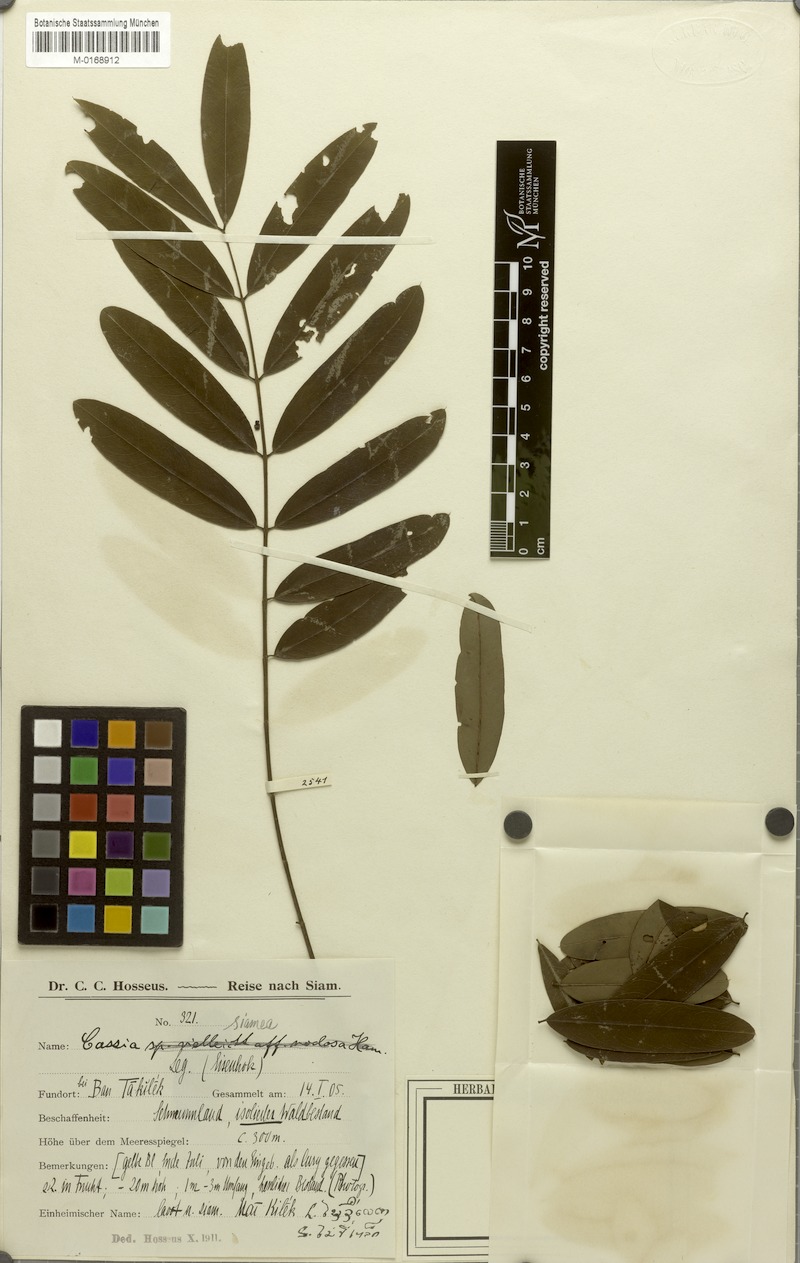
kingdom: Plantae
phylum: Tracheophyta
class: Magnoliopsida
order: Fabales
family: Fabaceae
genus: Senna
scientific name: Senna siamea
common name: Siamese cassia
